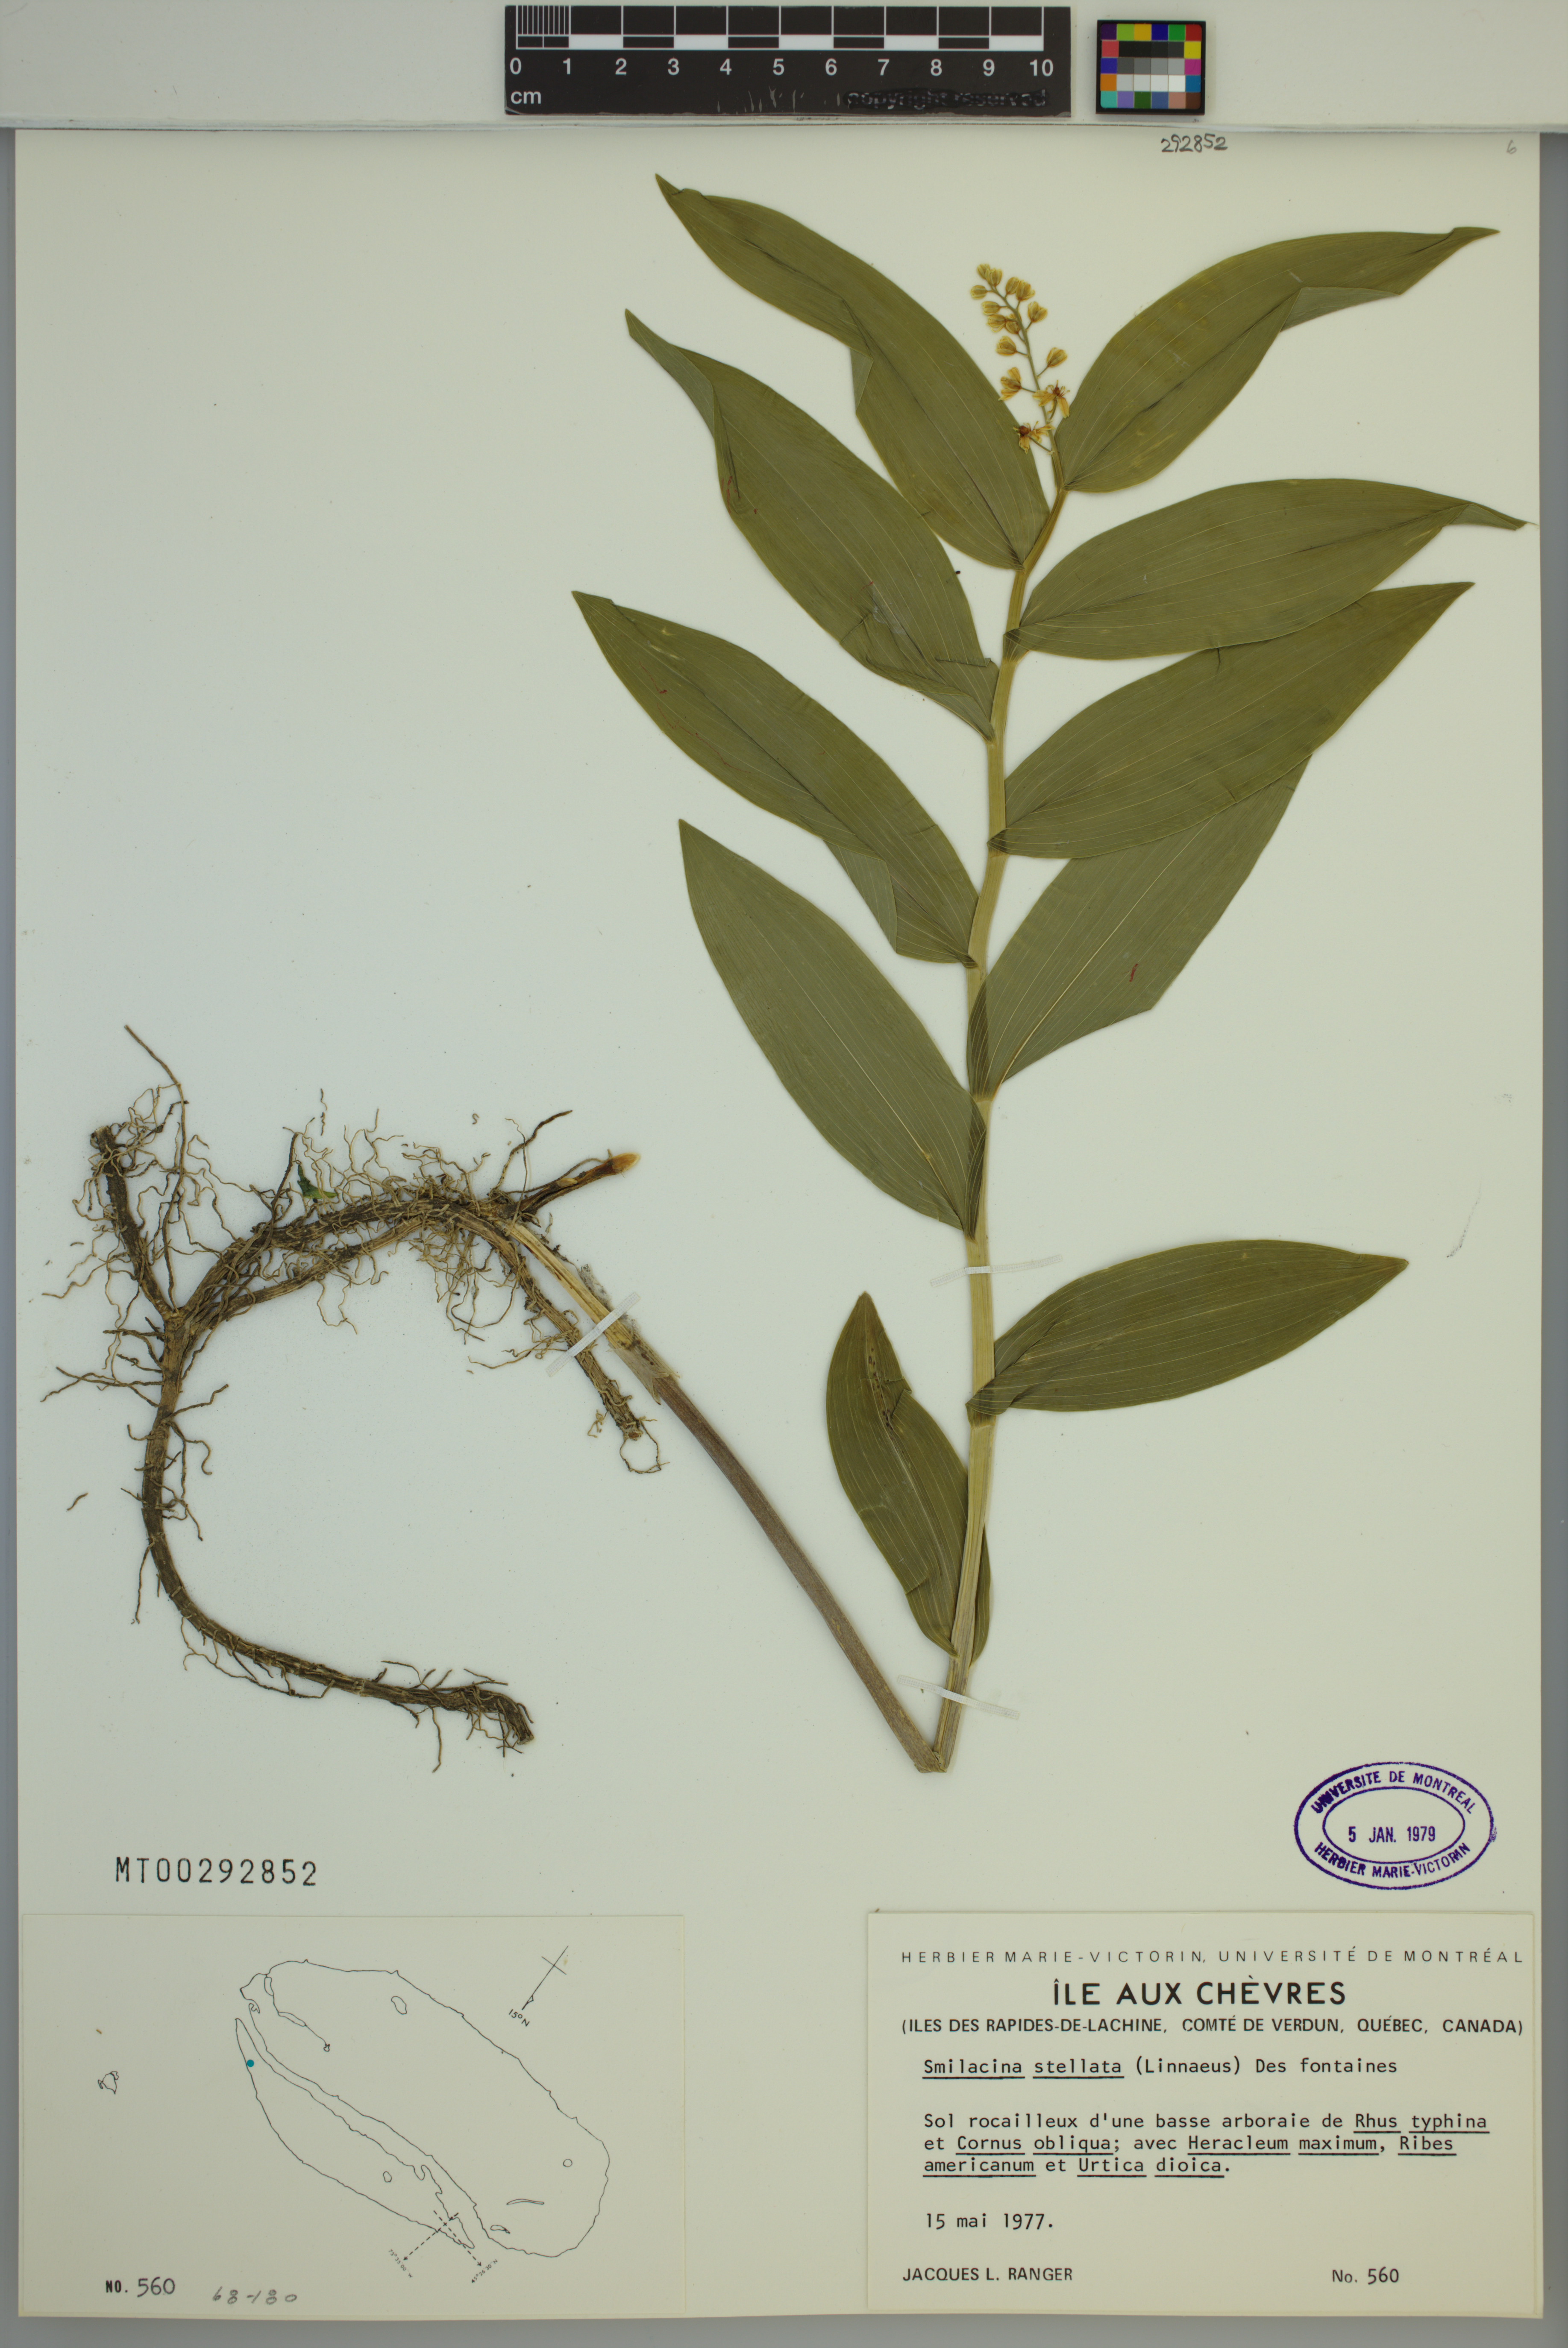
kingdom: Plantae
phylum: Tracheophyta
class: Liliopsida
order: Asparagales
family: Asparagaceae
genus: Maianthemum
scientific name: Maianthemum stellatum
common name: Little false solomon's seal
